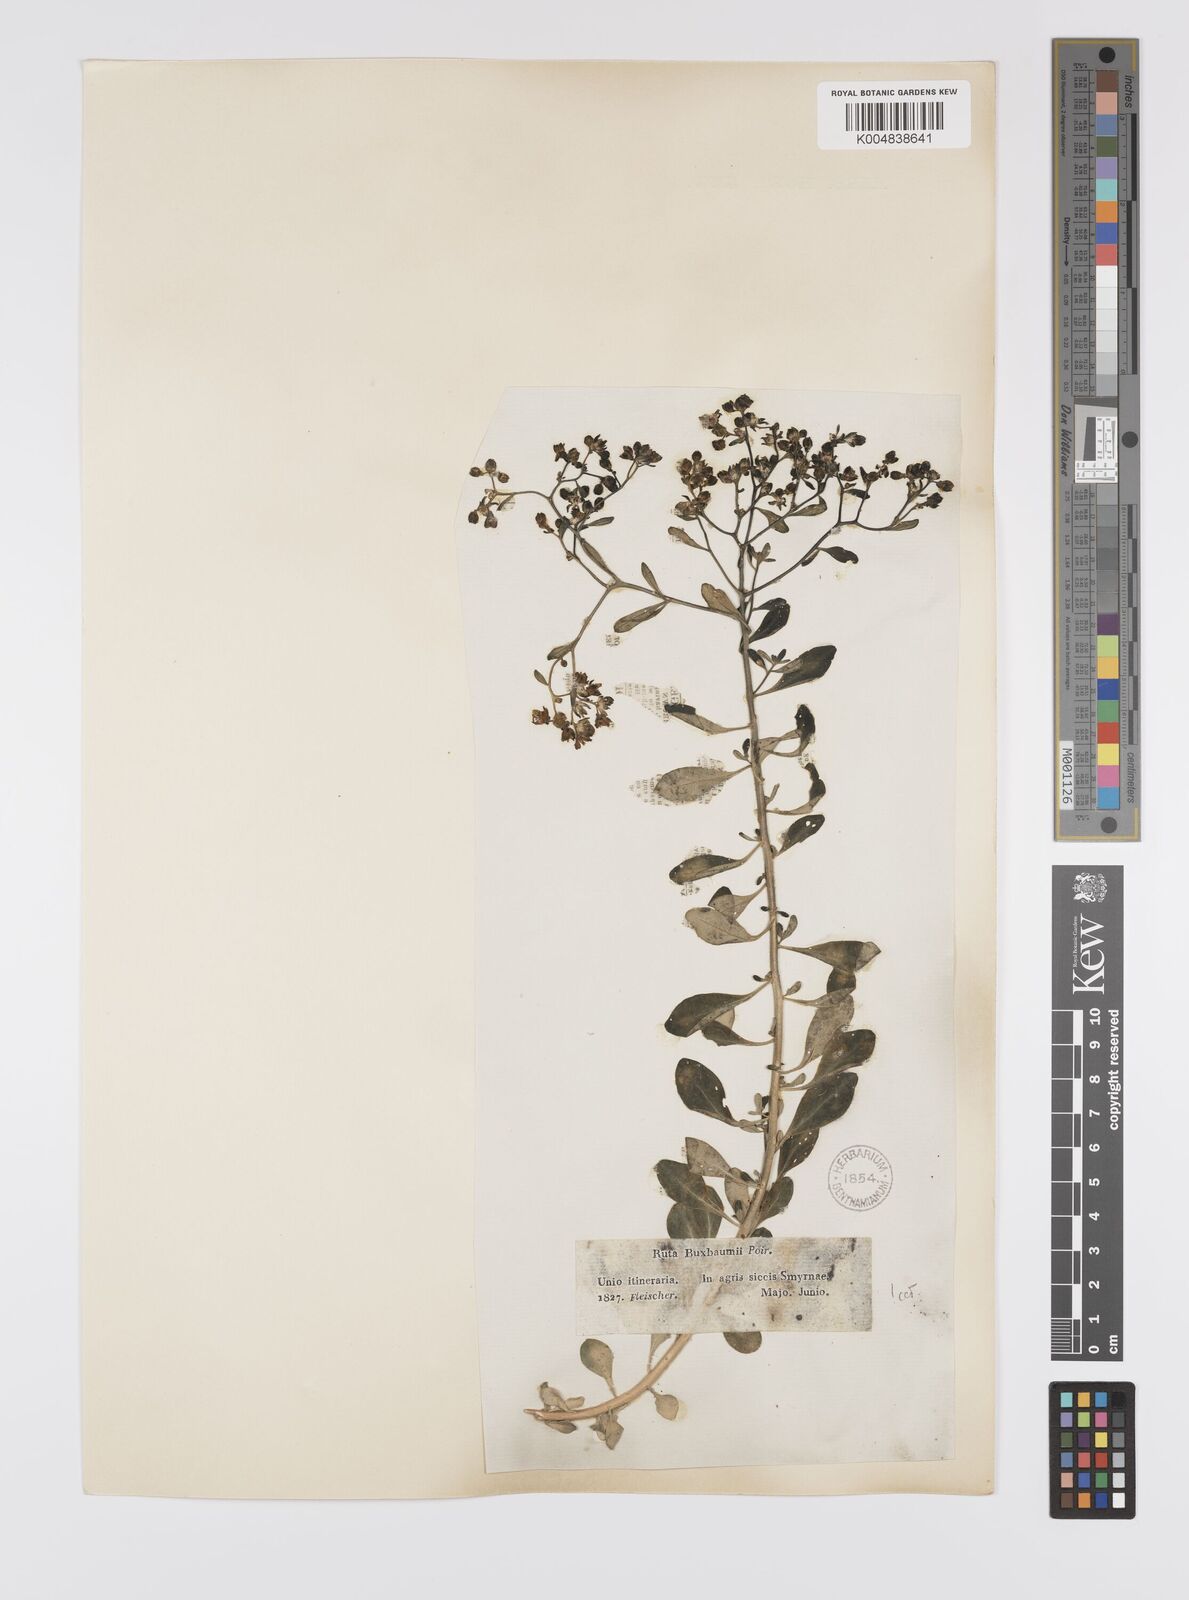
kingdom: Plantae
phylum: Tracheophyta
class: Magnoliopsida
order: Sapindales
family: Rutaceae
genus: Haplophyllum
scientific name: Haplophyllum
